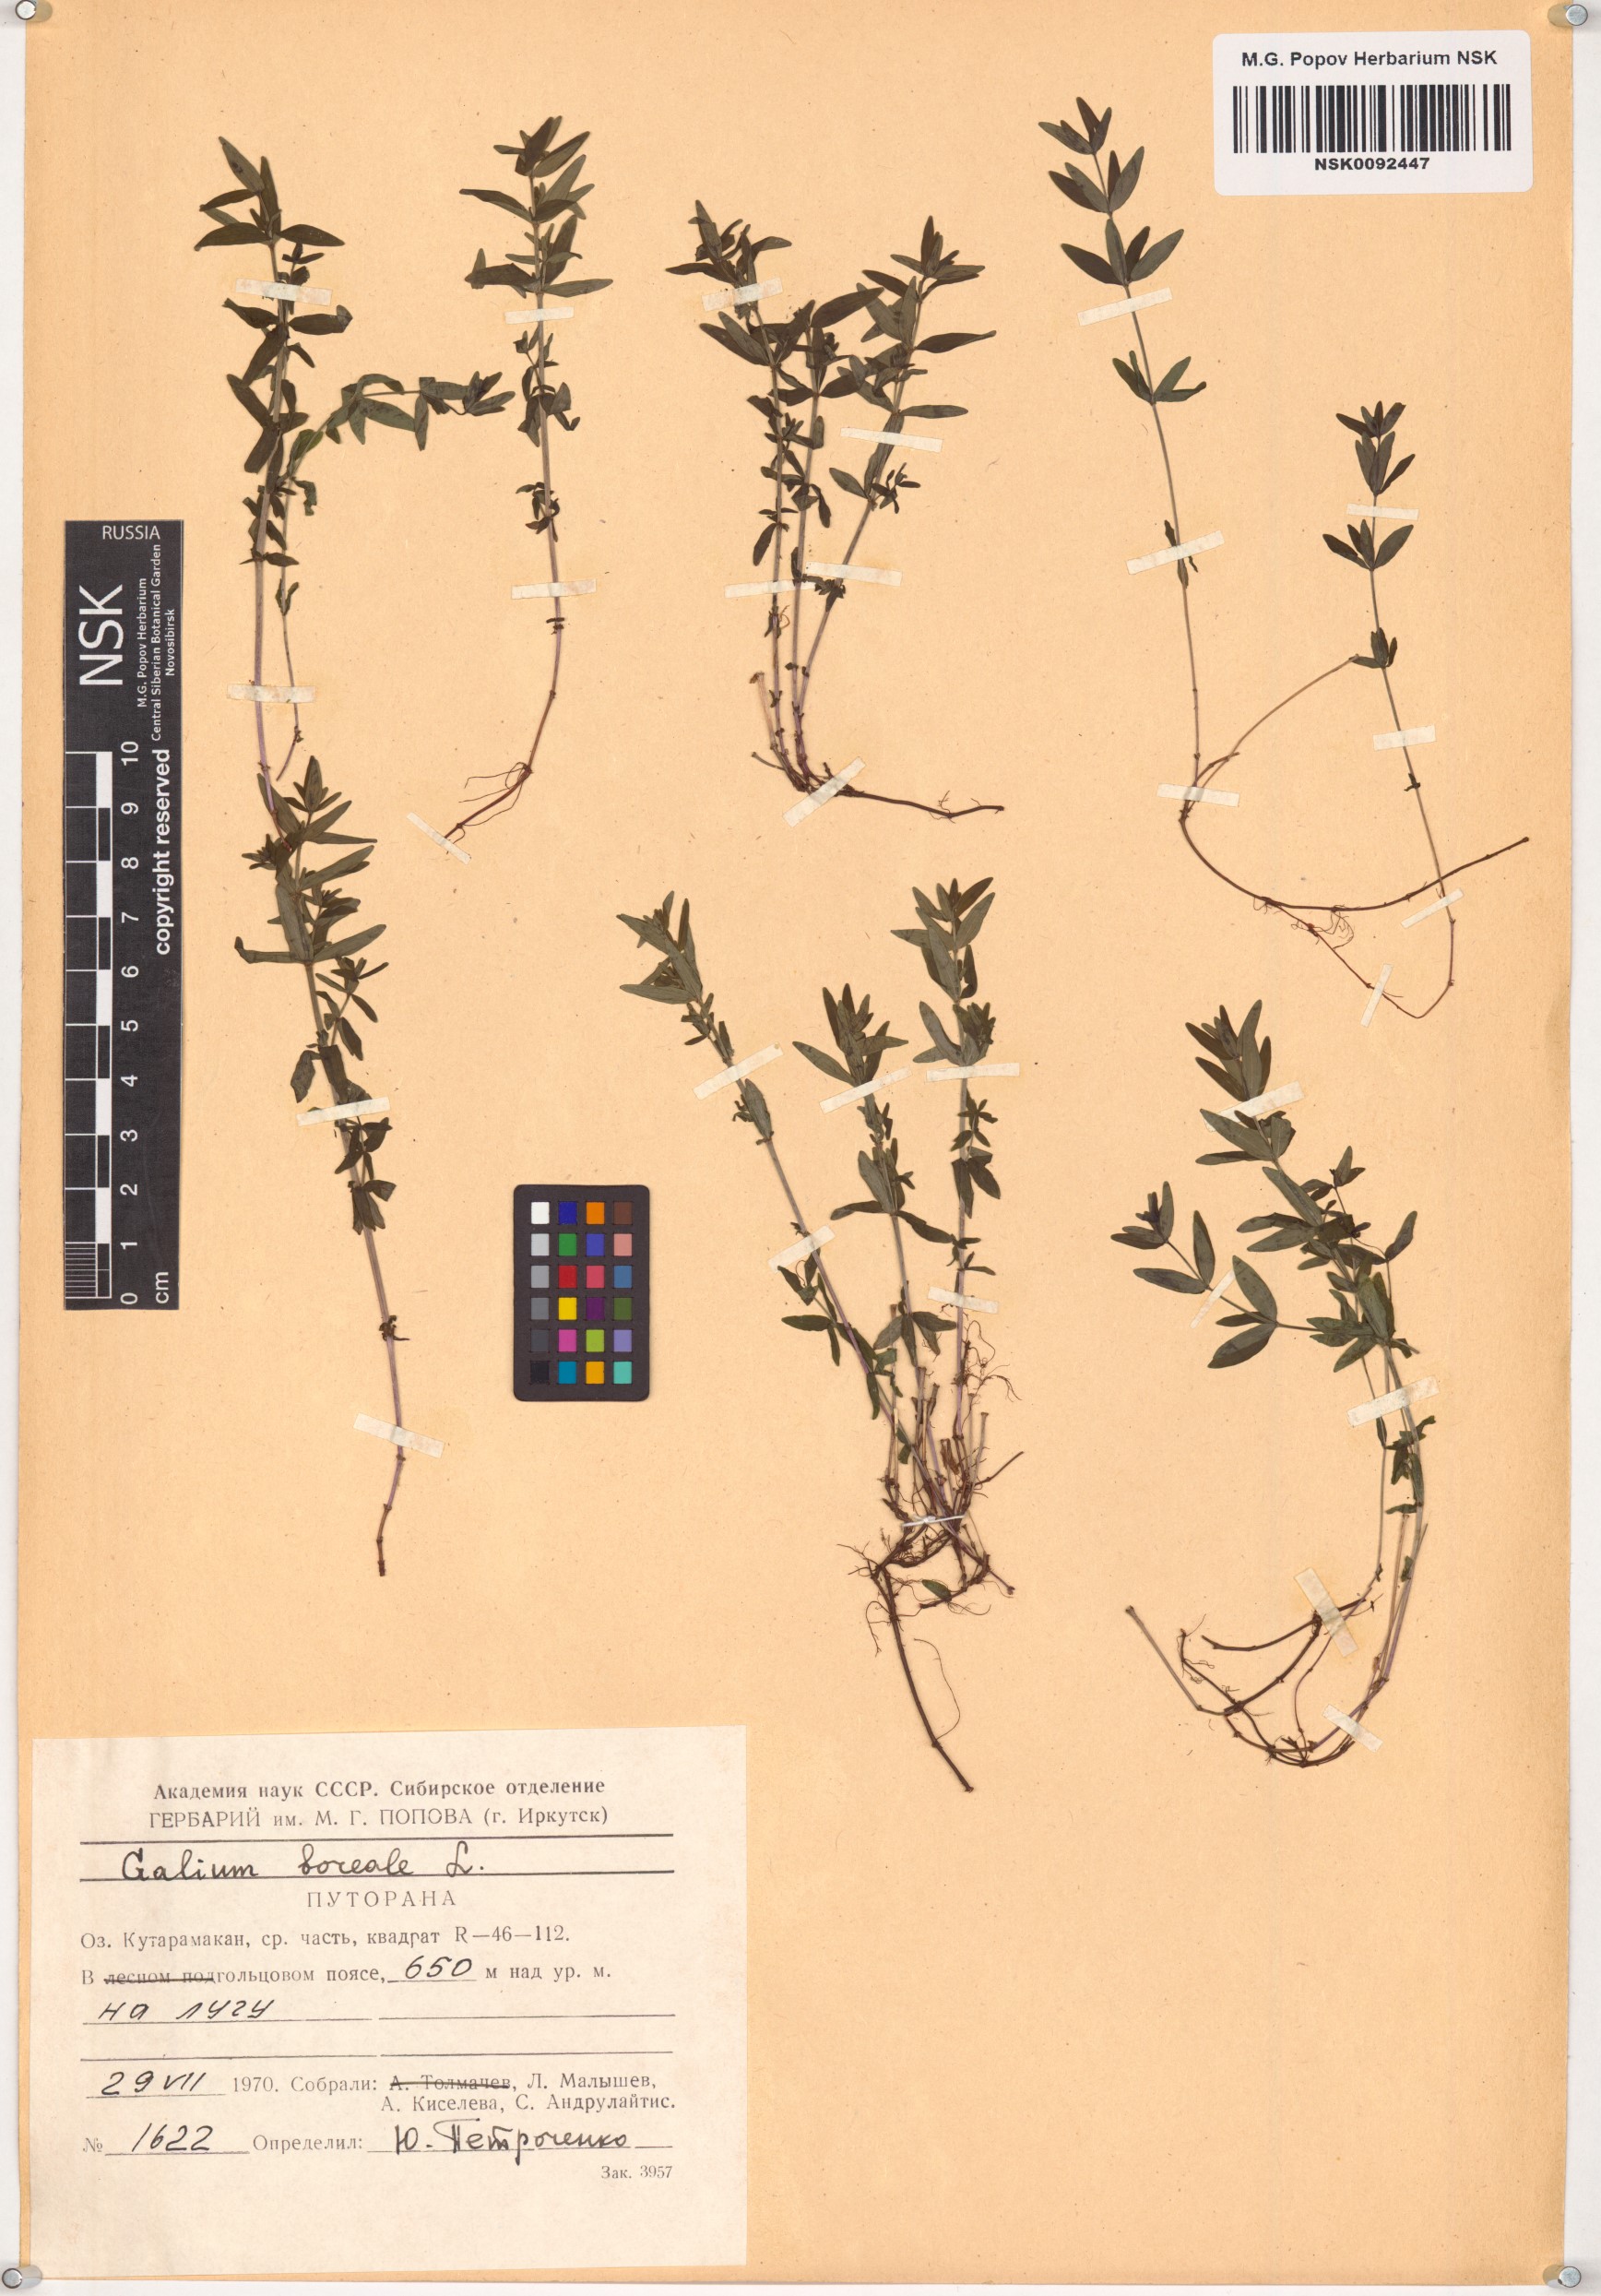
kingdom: Plantae
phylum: Tracheophyta
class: Magnoliopsida
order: Gentianales
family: Rubiaceae
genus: Galium
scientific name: Galium boreale
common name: Northern bedstraw
